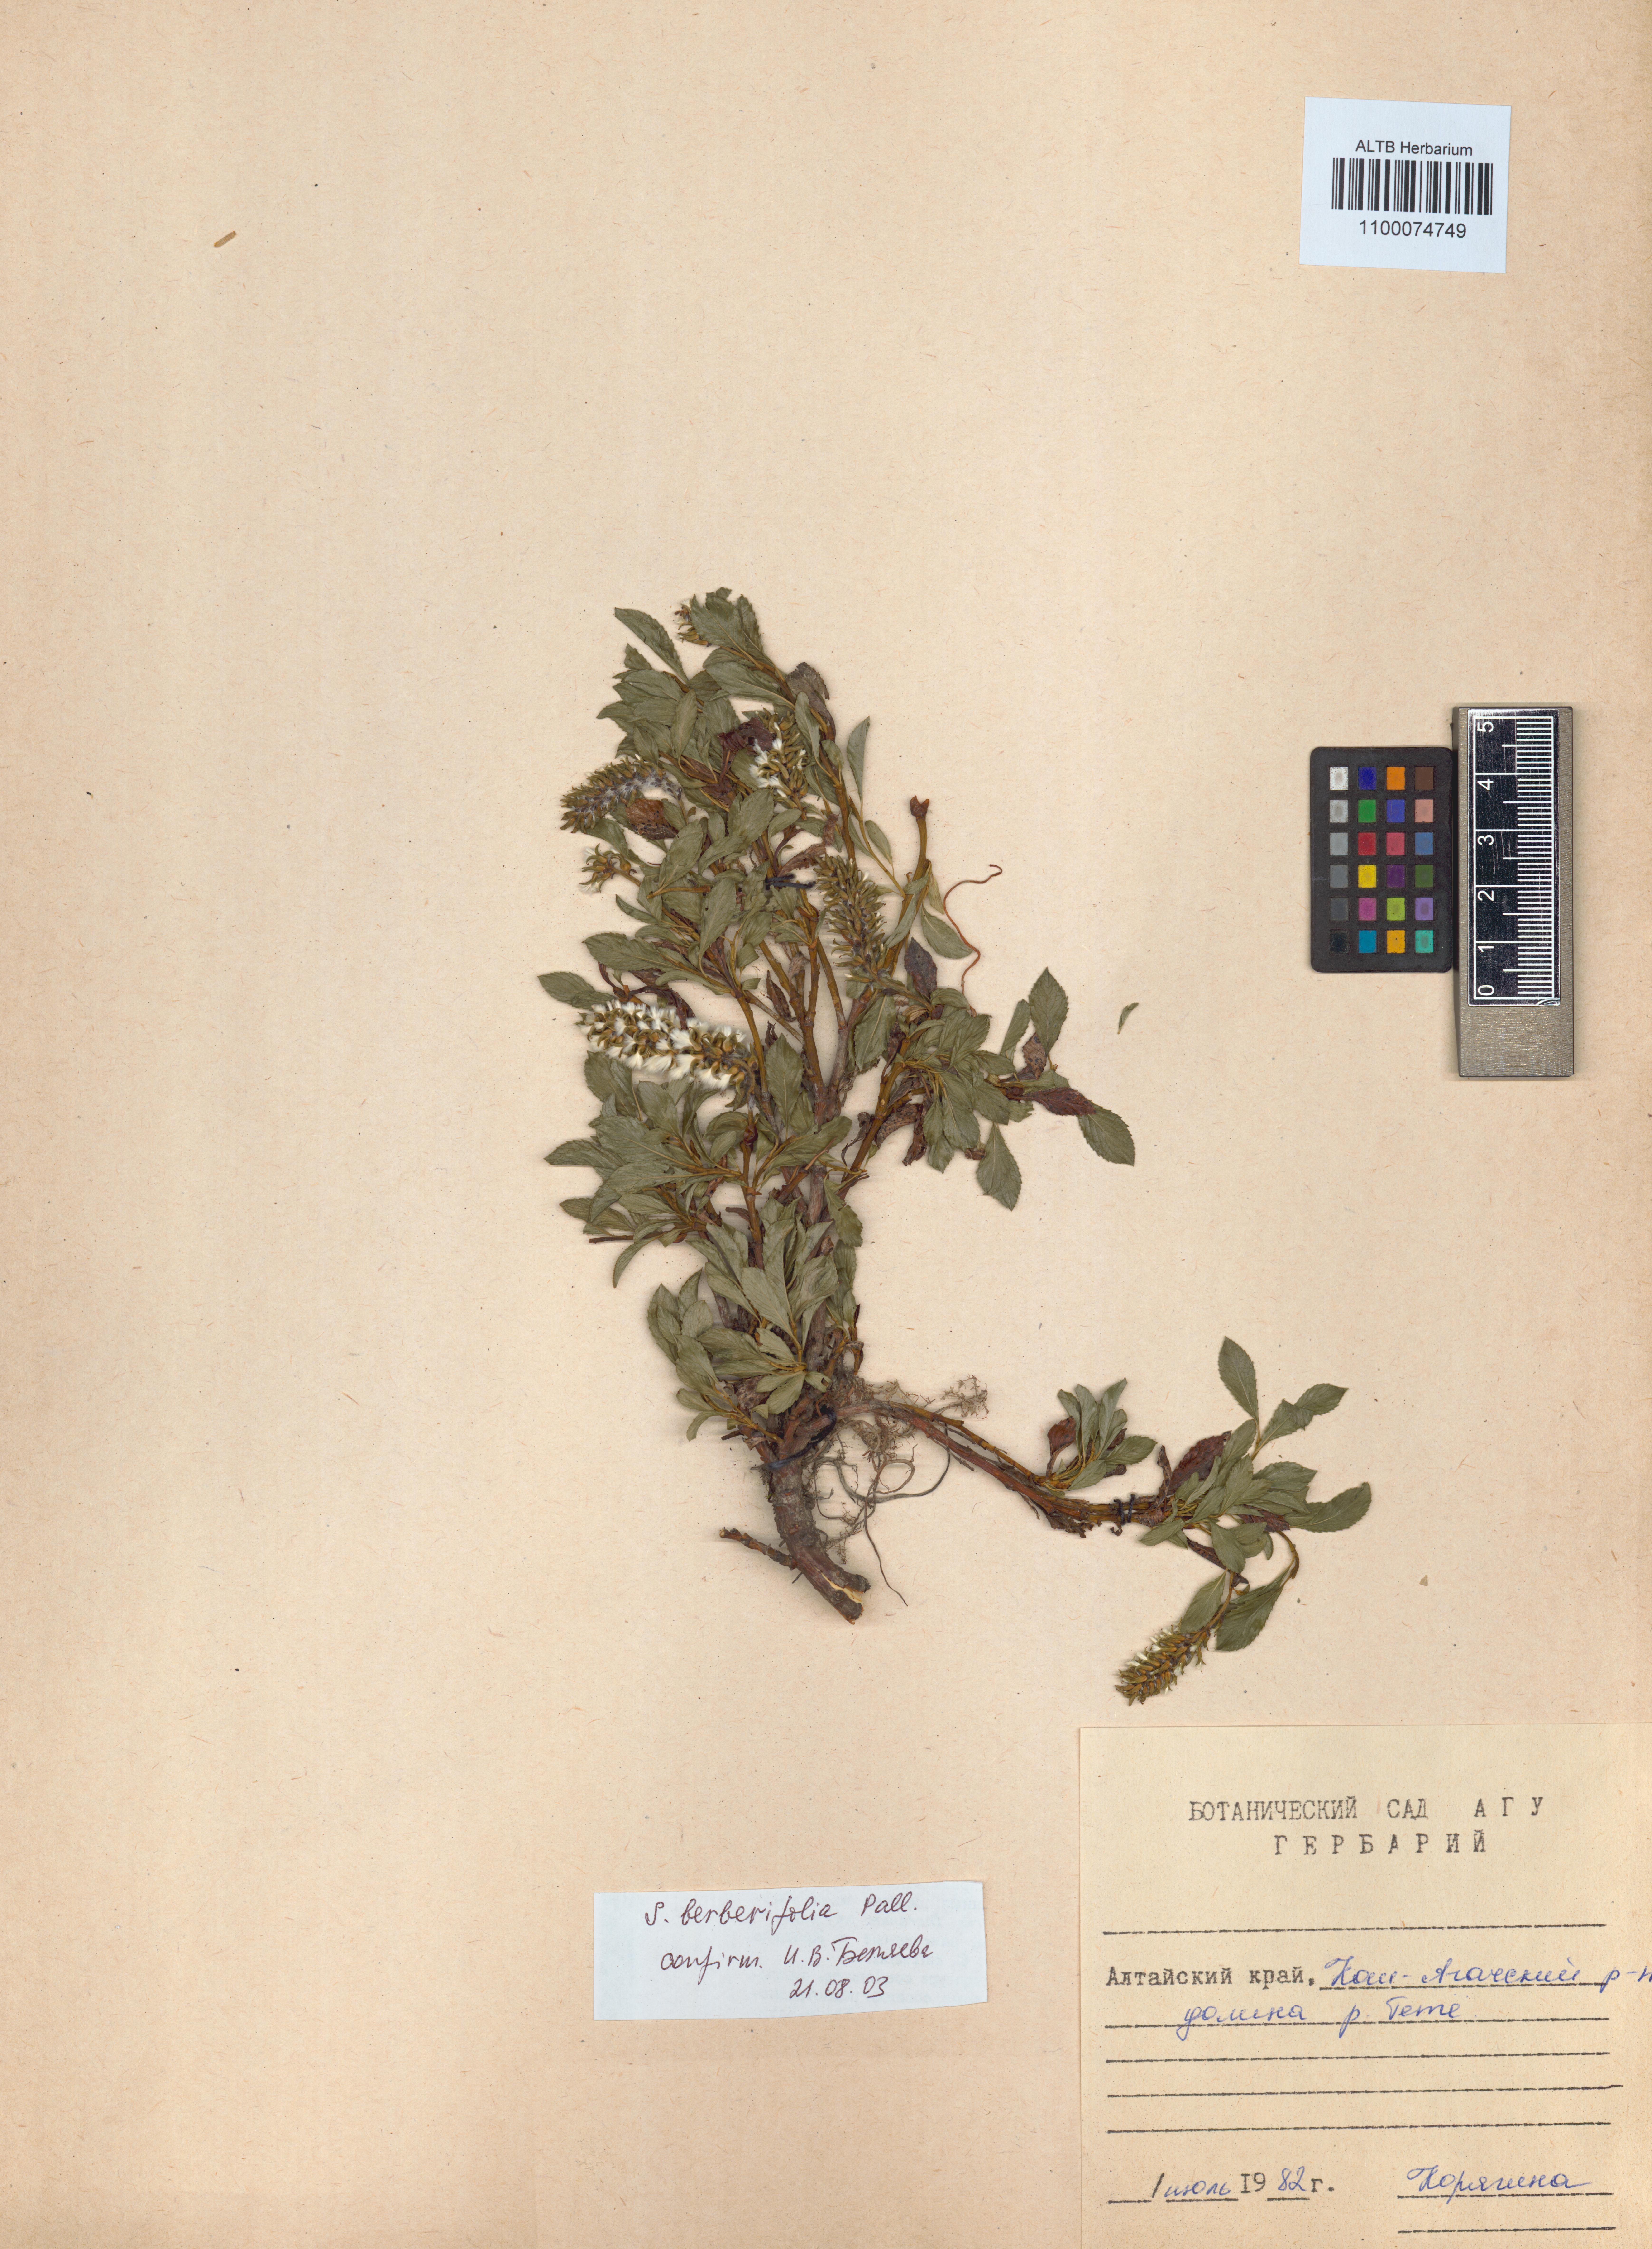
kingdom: Plantae
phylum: Tracheophyta
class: Magnoliopsida
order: Malpighiales
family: Salicaceae
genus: Salix
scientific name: Salix berberifolia
